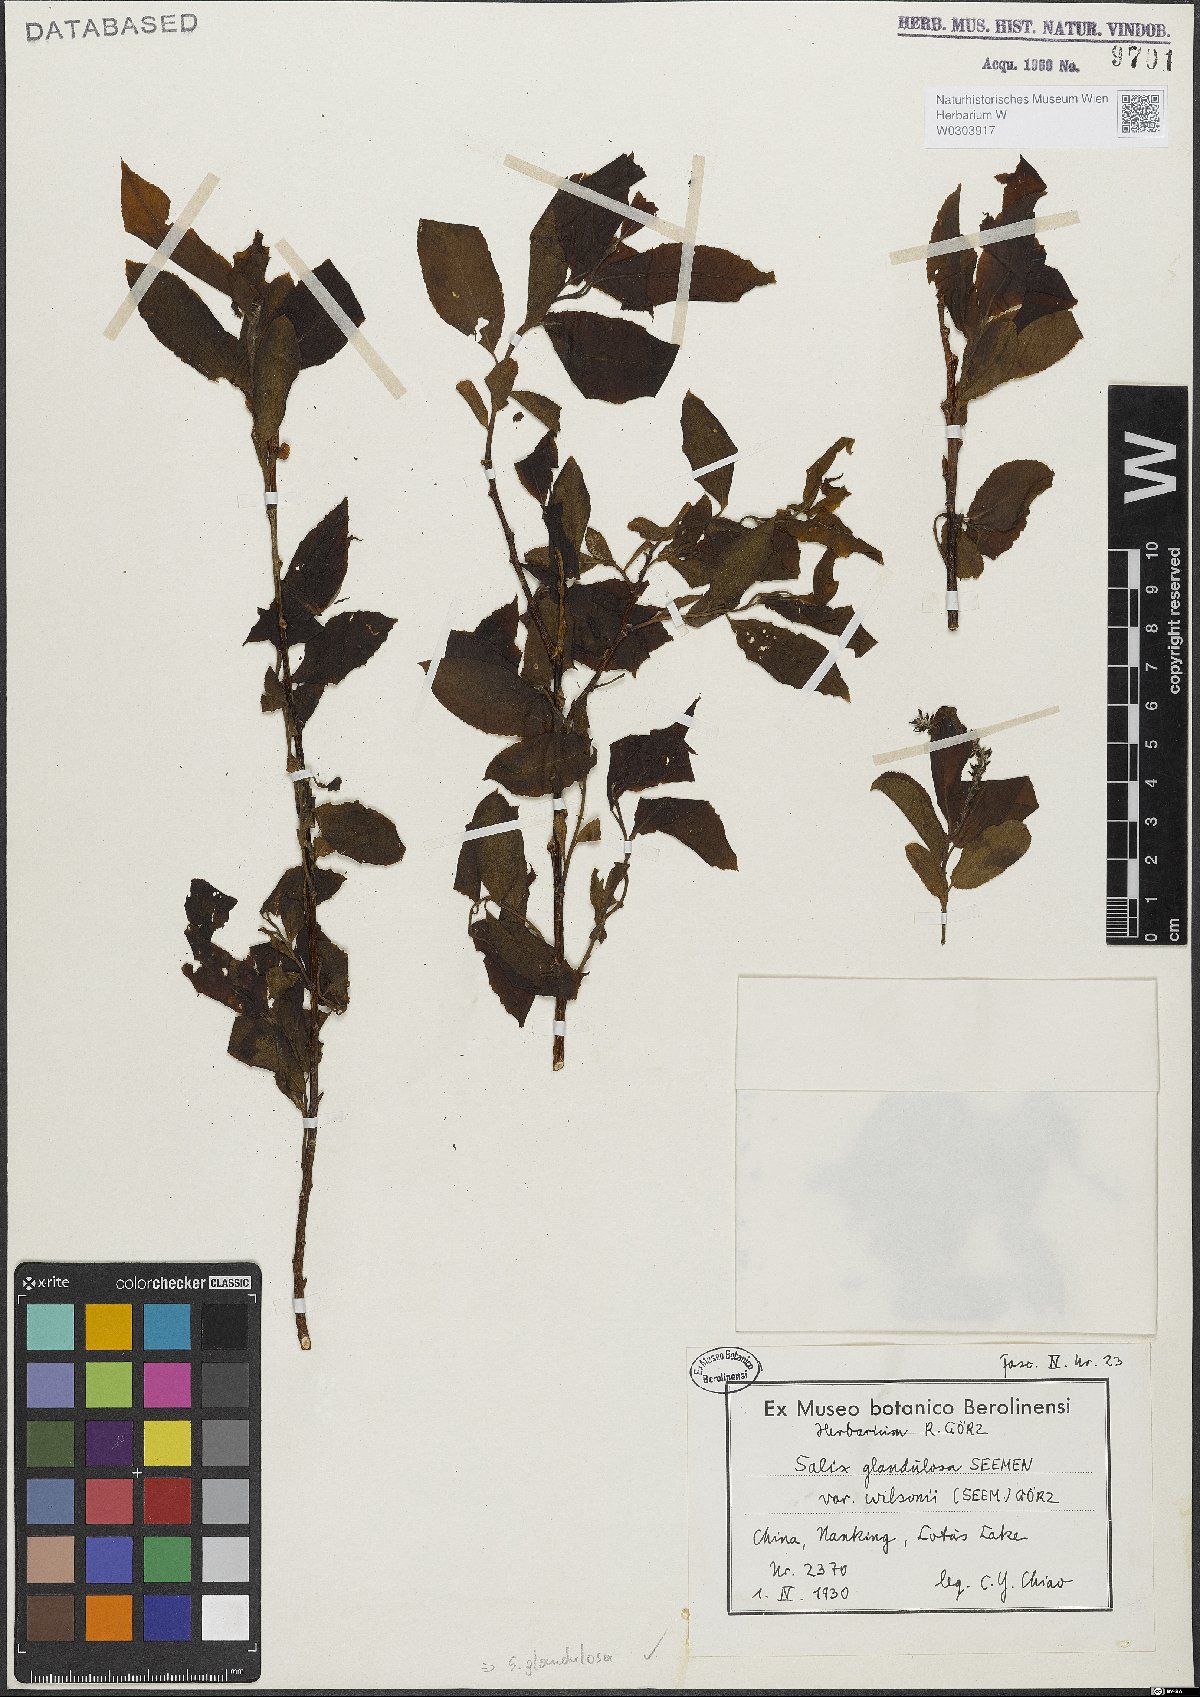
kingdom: Plantae
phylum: Tracheophyta
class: Magnoliopsida
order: Malpighiales
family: Salicaceae
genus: Salix
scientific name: Salix chaenomeloides
